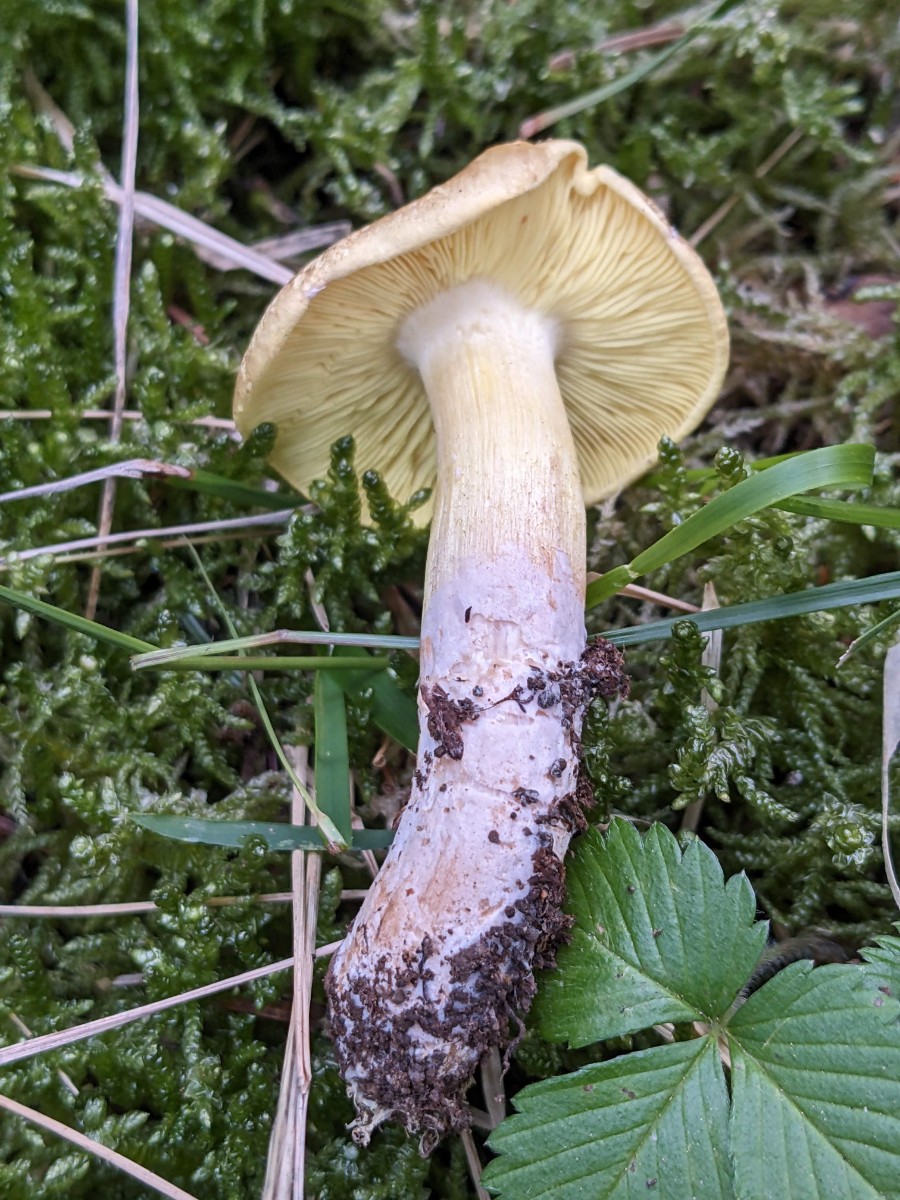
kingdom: Fungi
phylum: Basidiomycota
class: Agaricomycetes
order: Agaricales
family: Tricholomataceae
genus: Tricholoma
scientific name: Tricholoma frondosae
